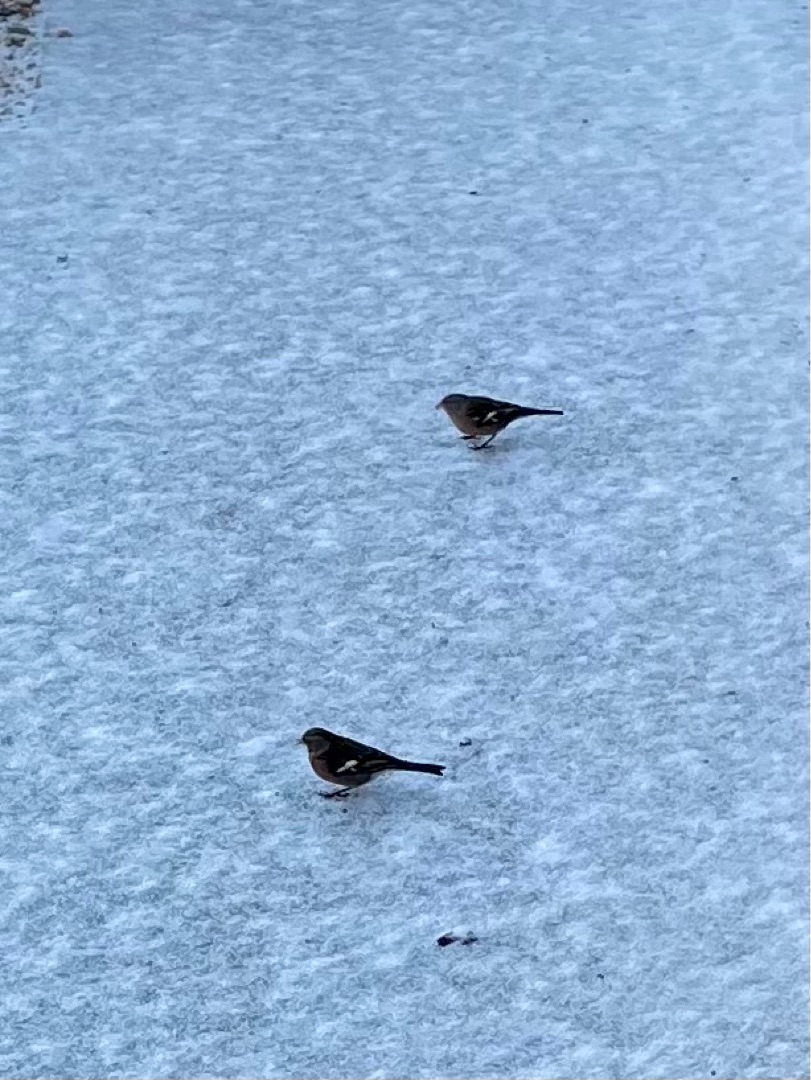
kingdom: Animalia
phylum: Chordata
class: Aves
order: Passeriformes
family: Fringillidae
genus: Fringilla
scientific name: Fringilla coelebs
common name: Bogfinke
